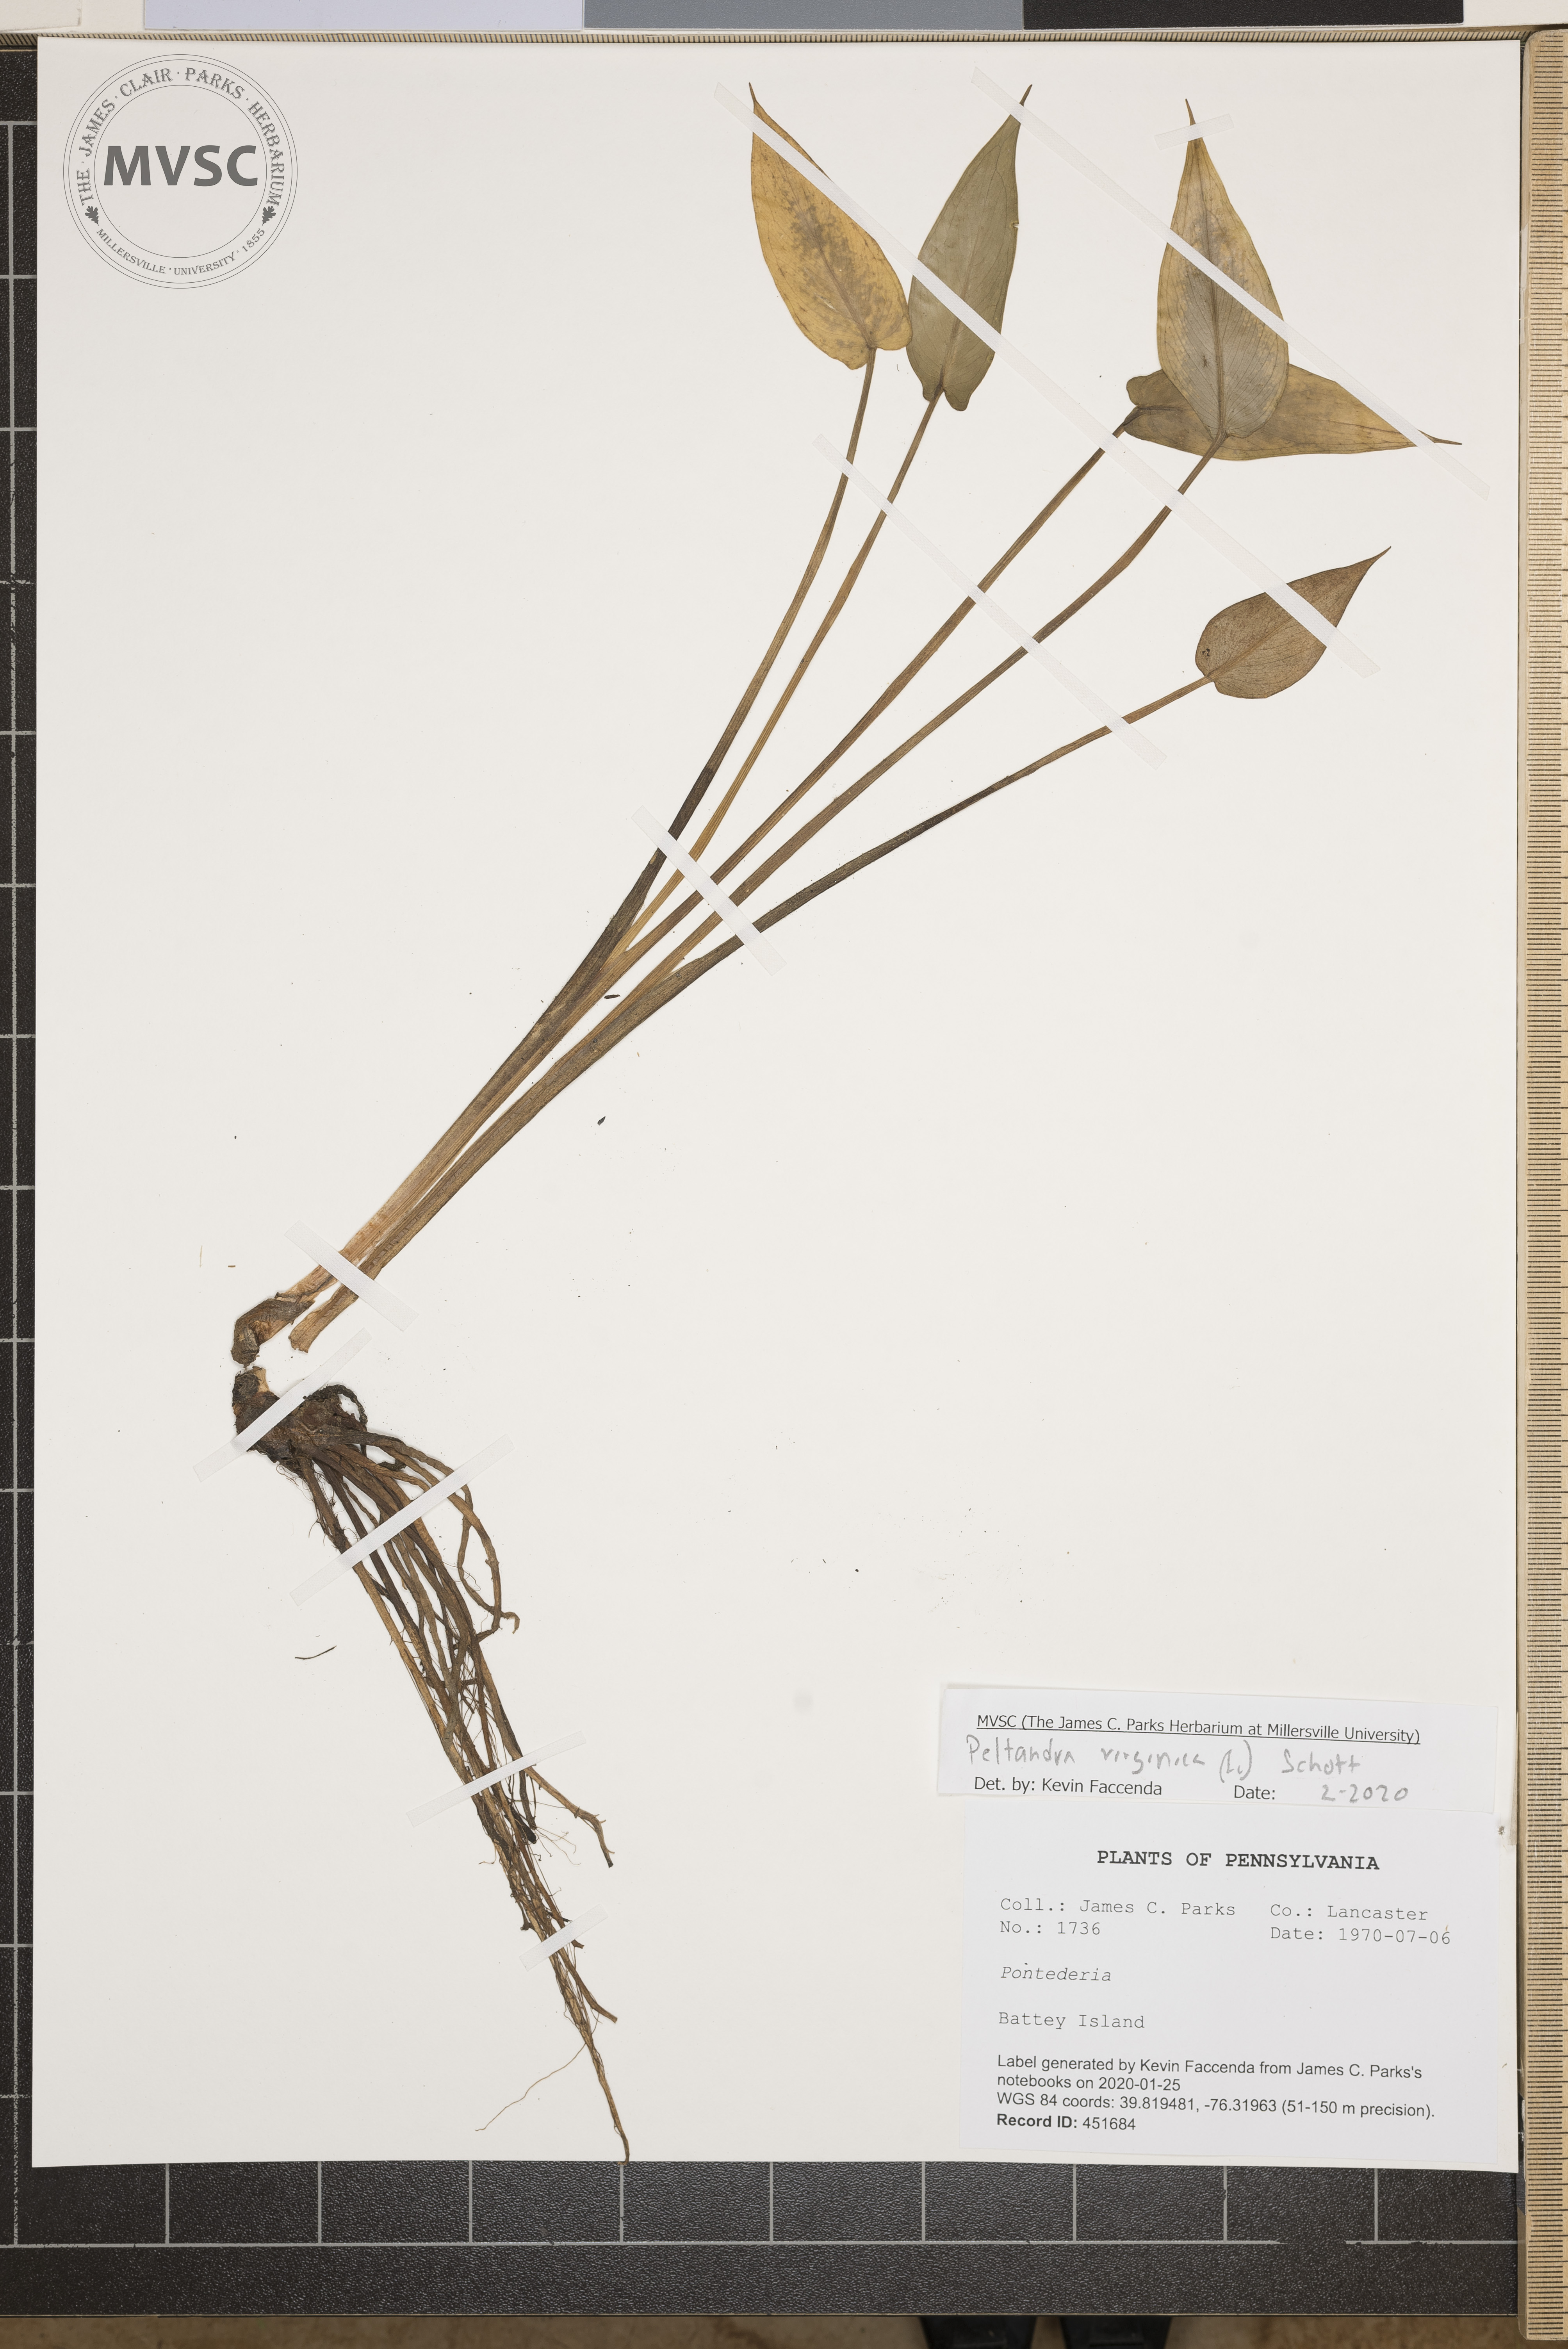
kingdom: Plantae
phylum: Tracheophyta
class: Liliopsida
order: Alismatales
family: Araceae
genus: Peltandra
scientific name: Peltandra virginica
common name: Arrow arum
